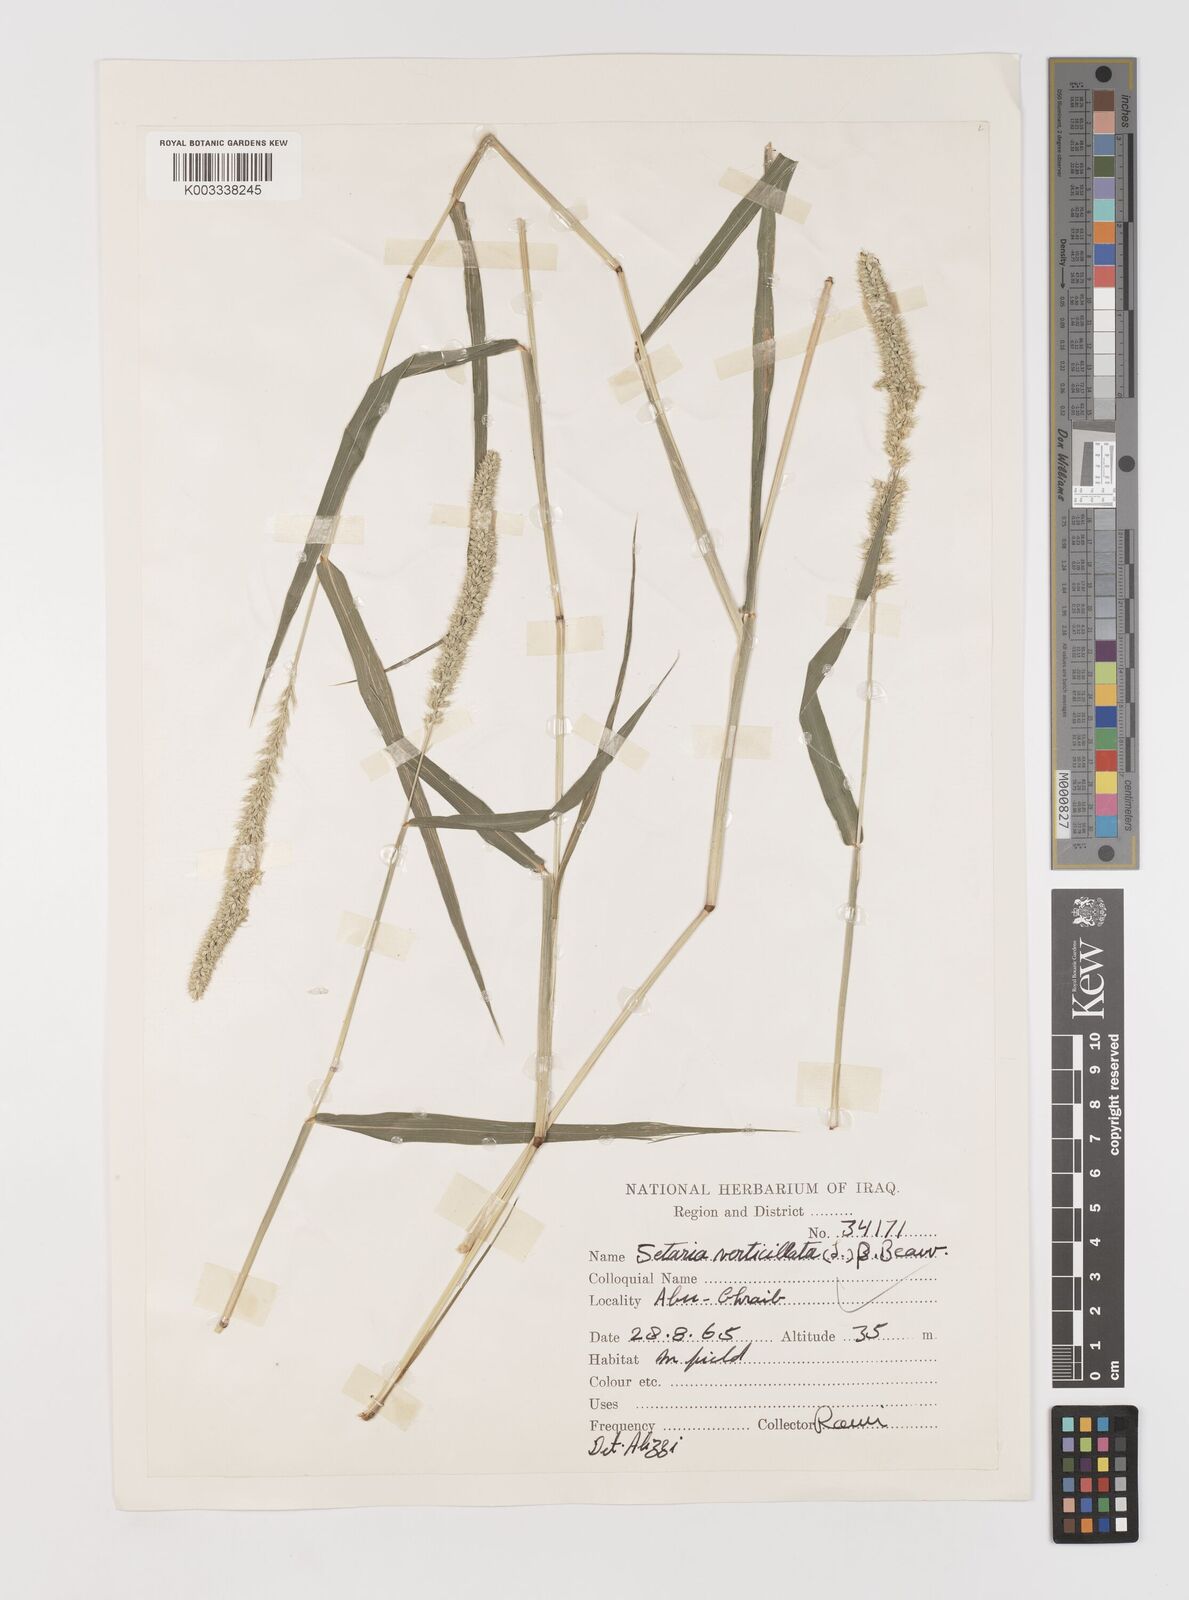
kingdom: Plantae
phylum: Tracheophyta
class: Liliopsida
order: Poales
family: Poaceae
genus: Setaria
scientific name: Setaria verticillata
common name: Hooked bristlegrass
